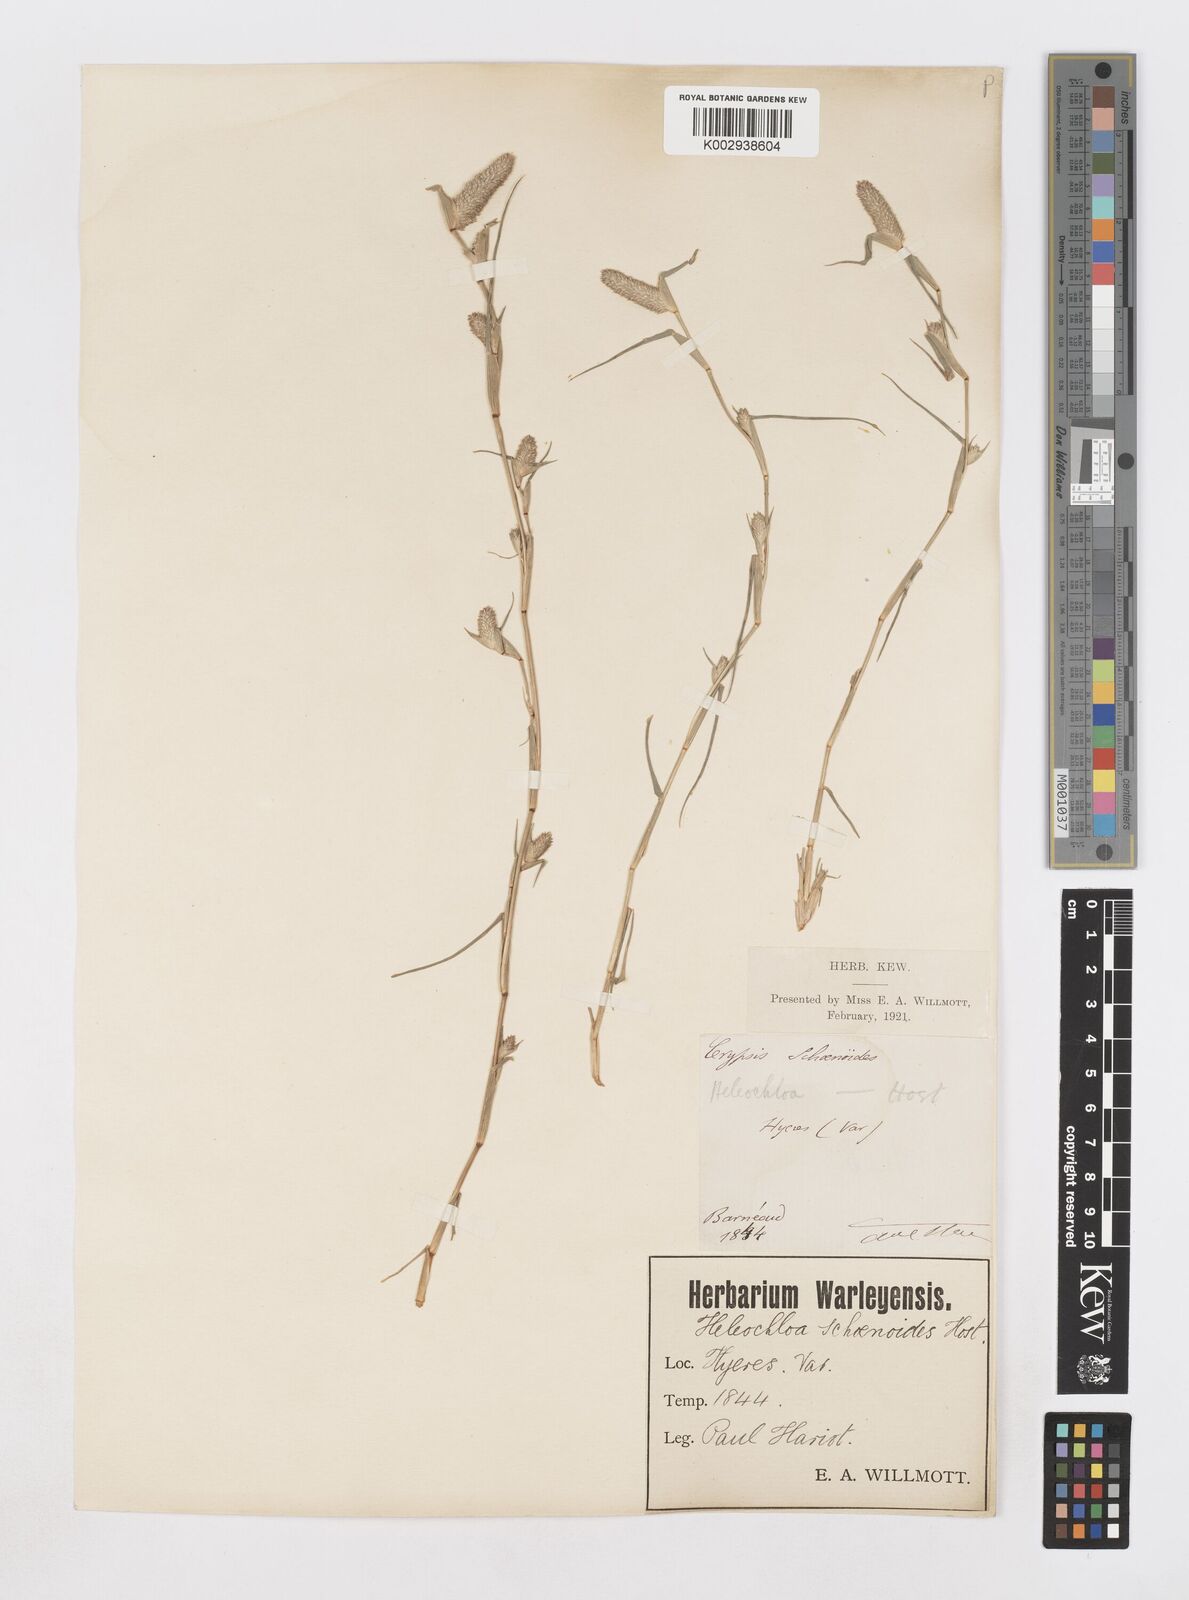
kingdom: Plantae
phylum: Tracheophyta
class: Liliopsida
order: Poales
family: Poaceae
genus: Sporobolus
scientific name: Sporobolus schoenoides
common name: Rush-like timothy
